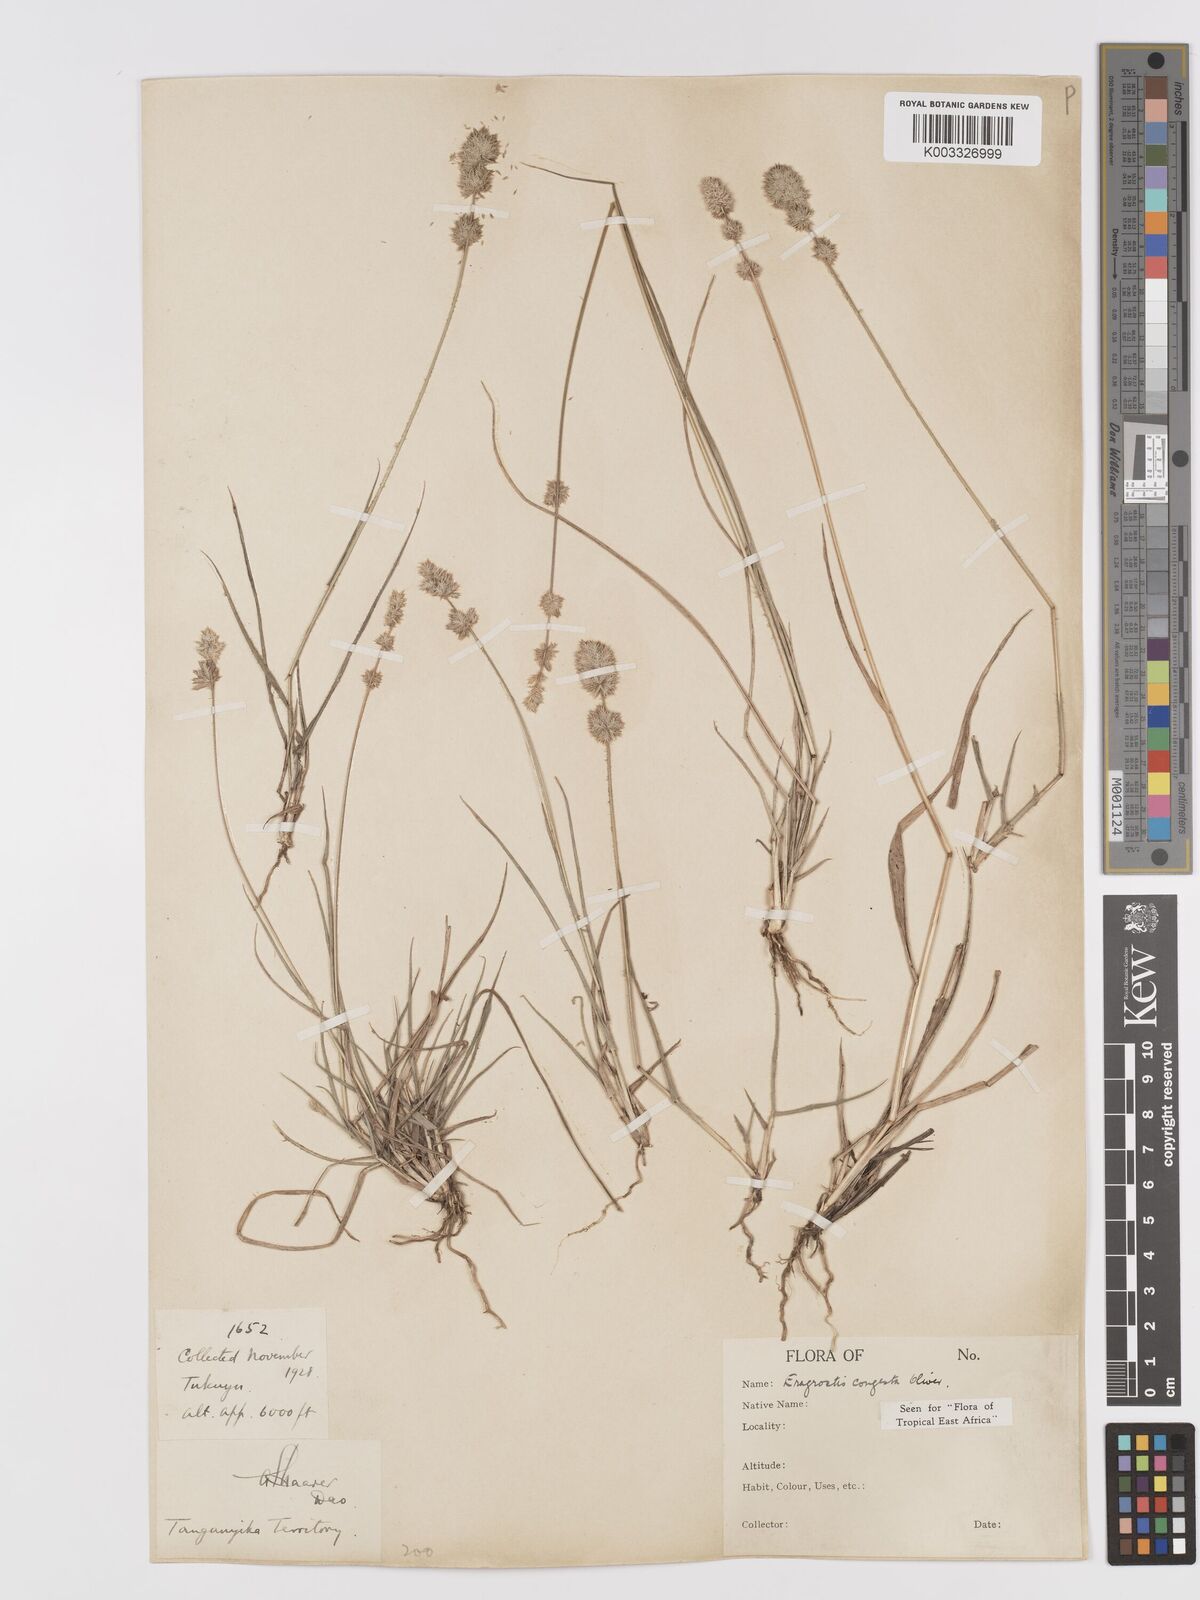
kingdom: Plantae
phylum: Tracheophyta
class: Liliopsida
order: Poales
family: Poaceae
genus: Eragrostis
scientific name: Eragrostis congesta
